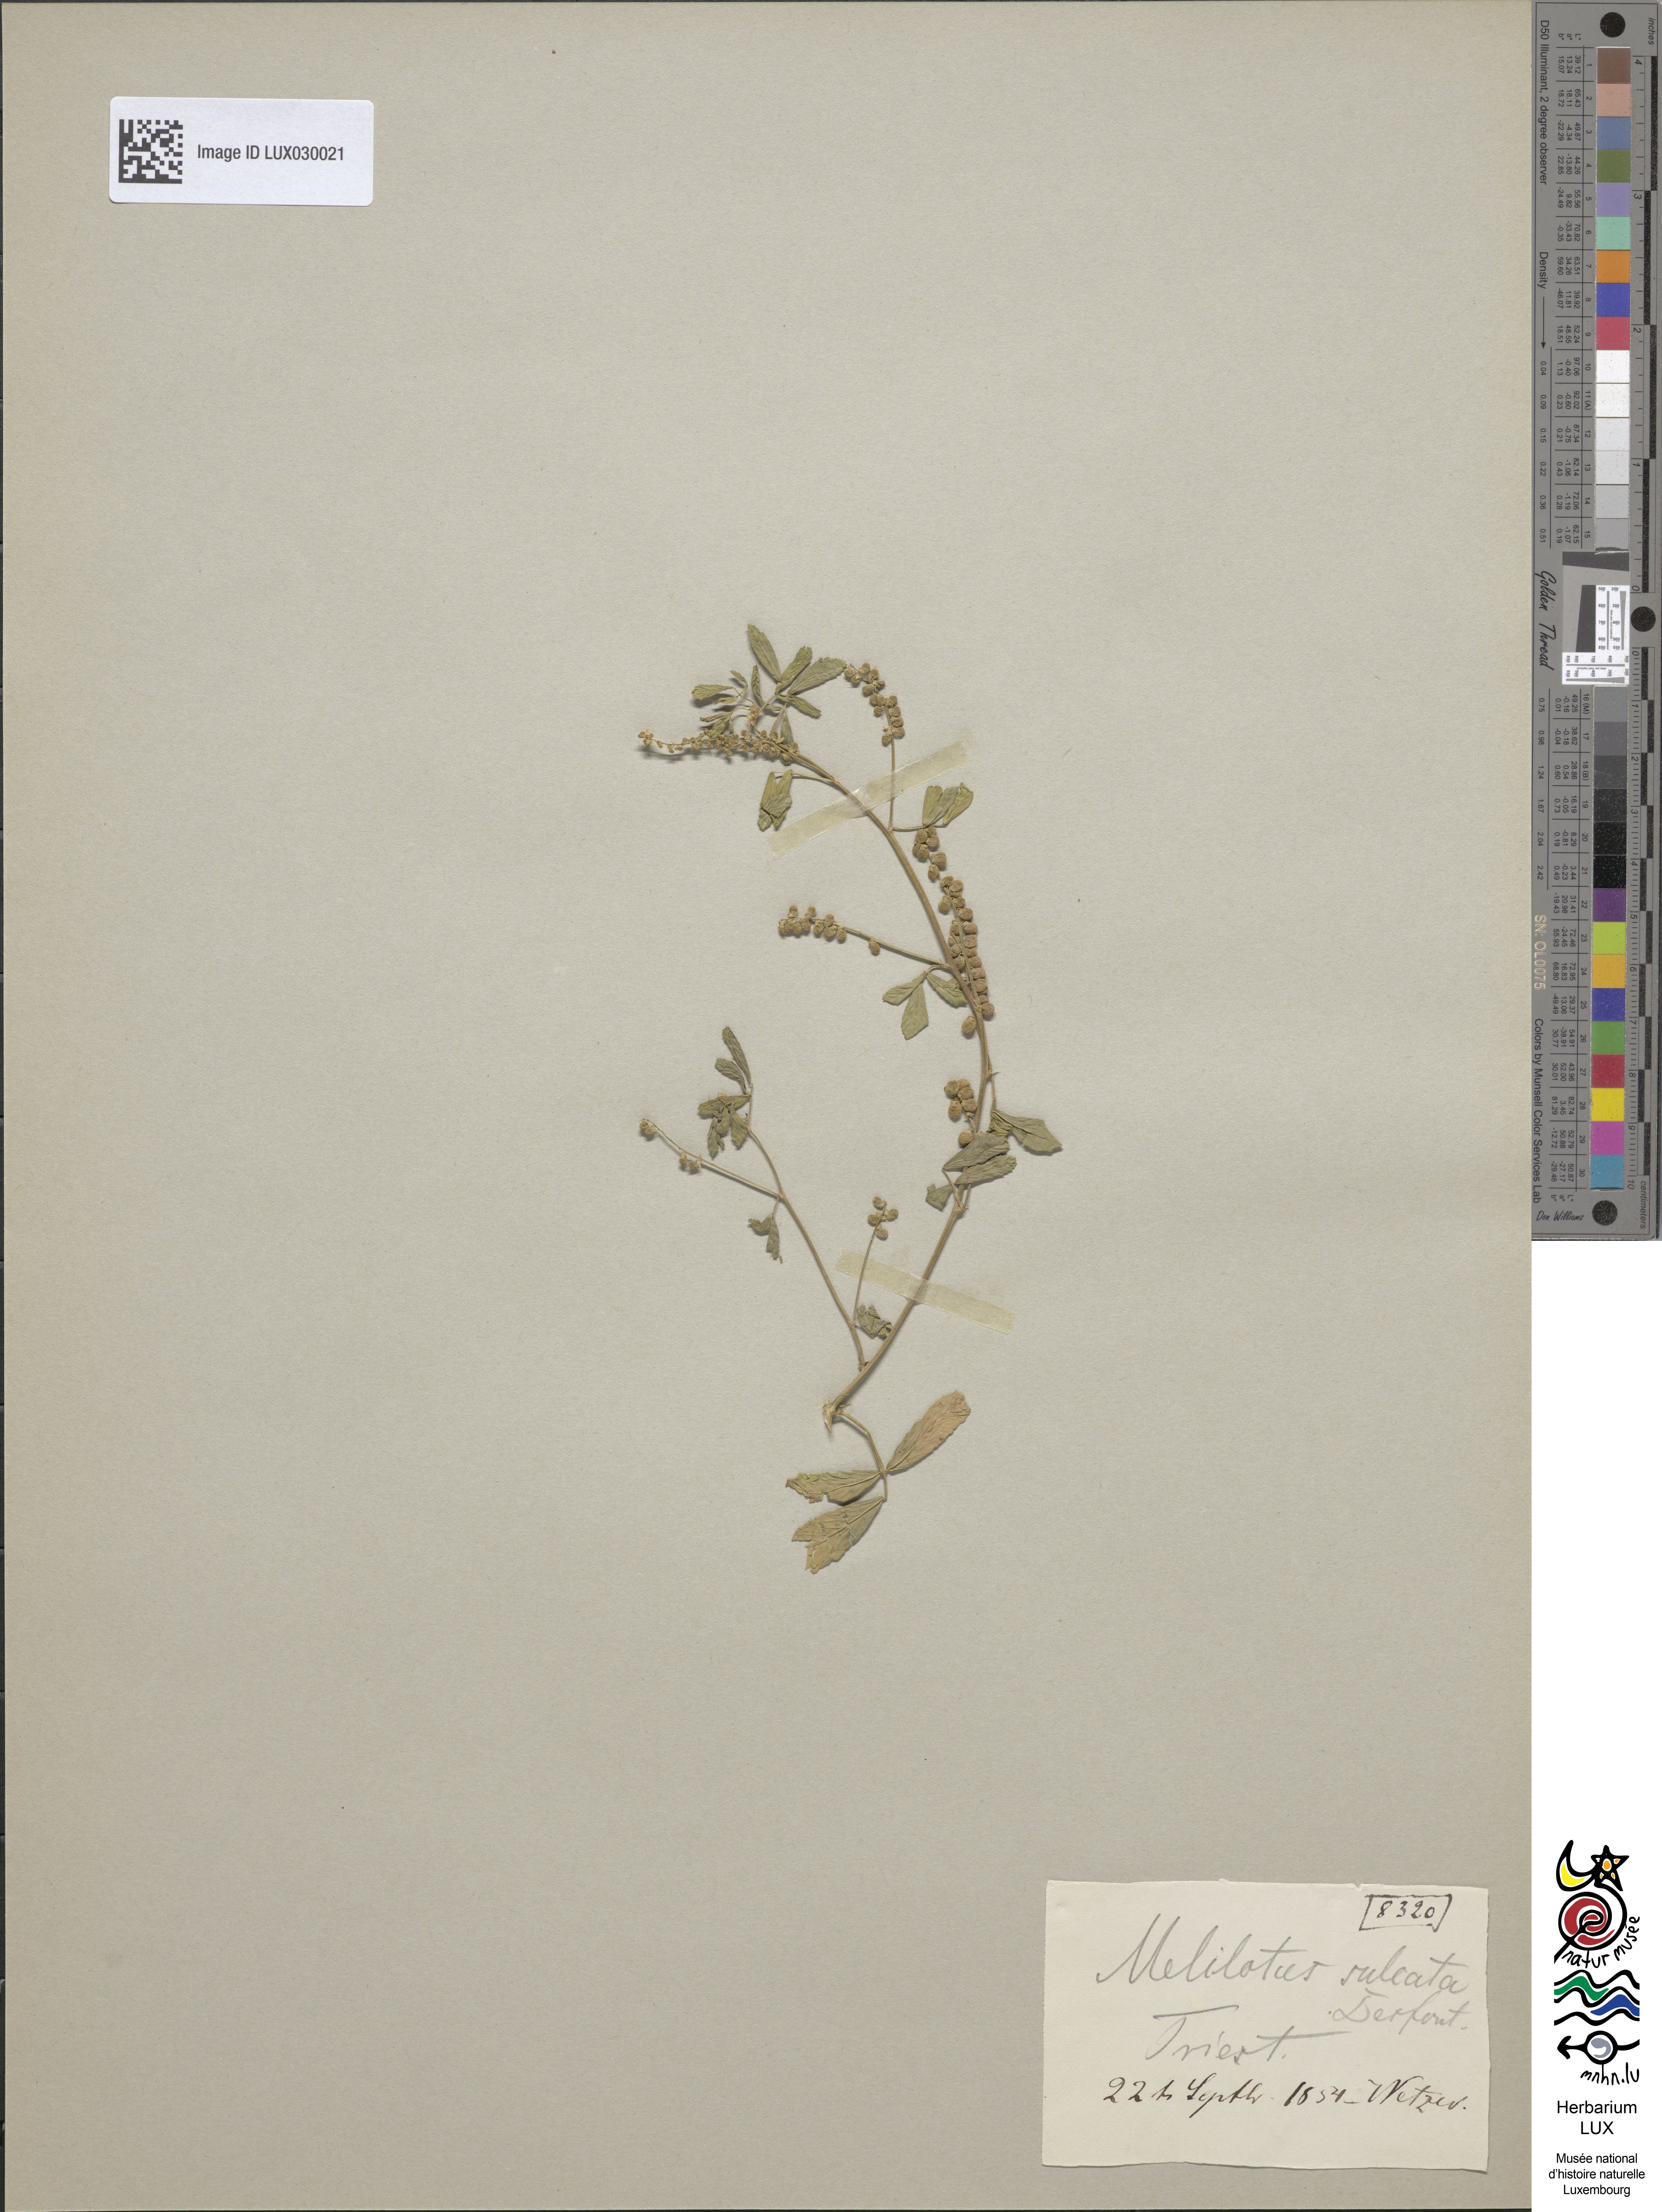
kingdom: Plantae
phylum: Tracheophyta
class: Magnoliopsida
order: Fabales
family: Fabaceae
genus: Melilotus
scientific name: Melilotus sulcatus
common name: Furrowed melilot
